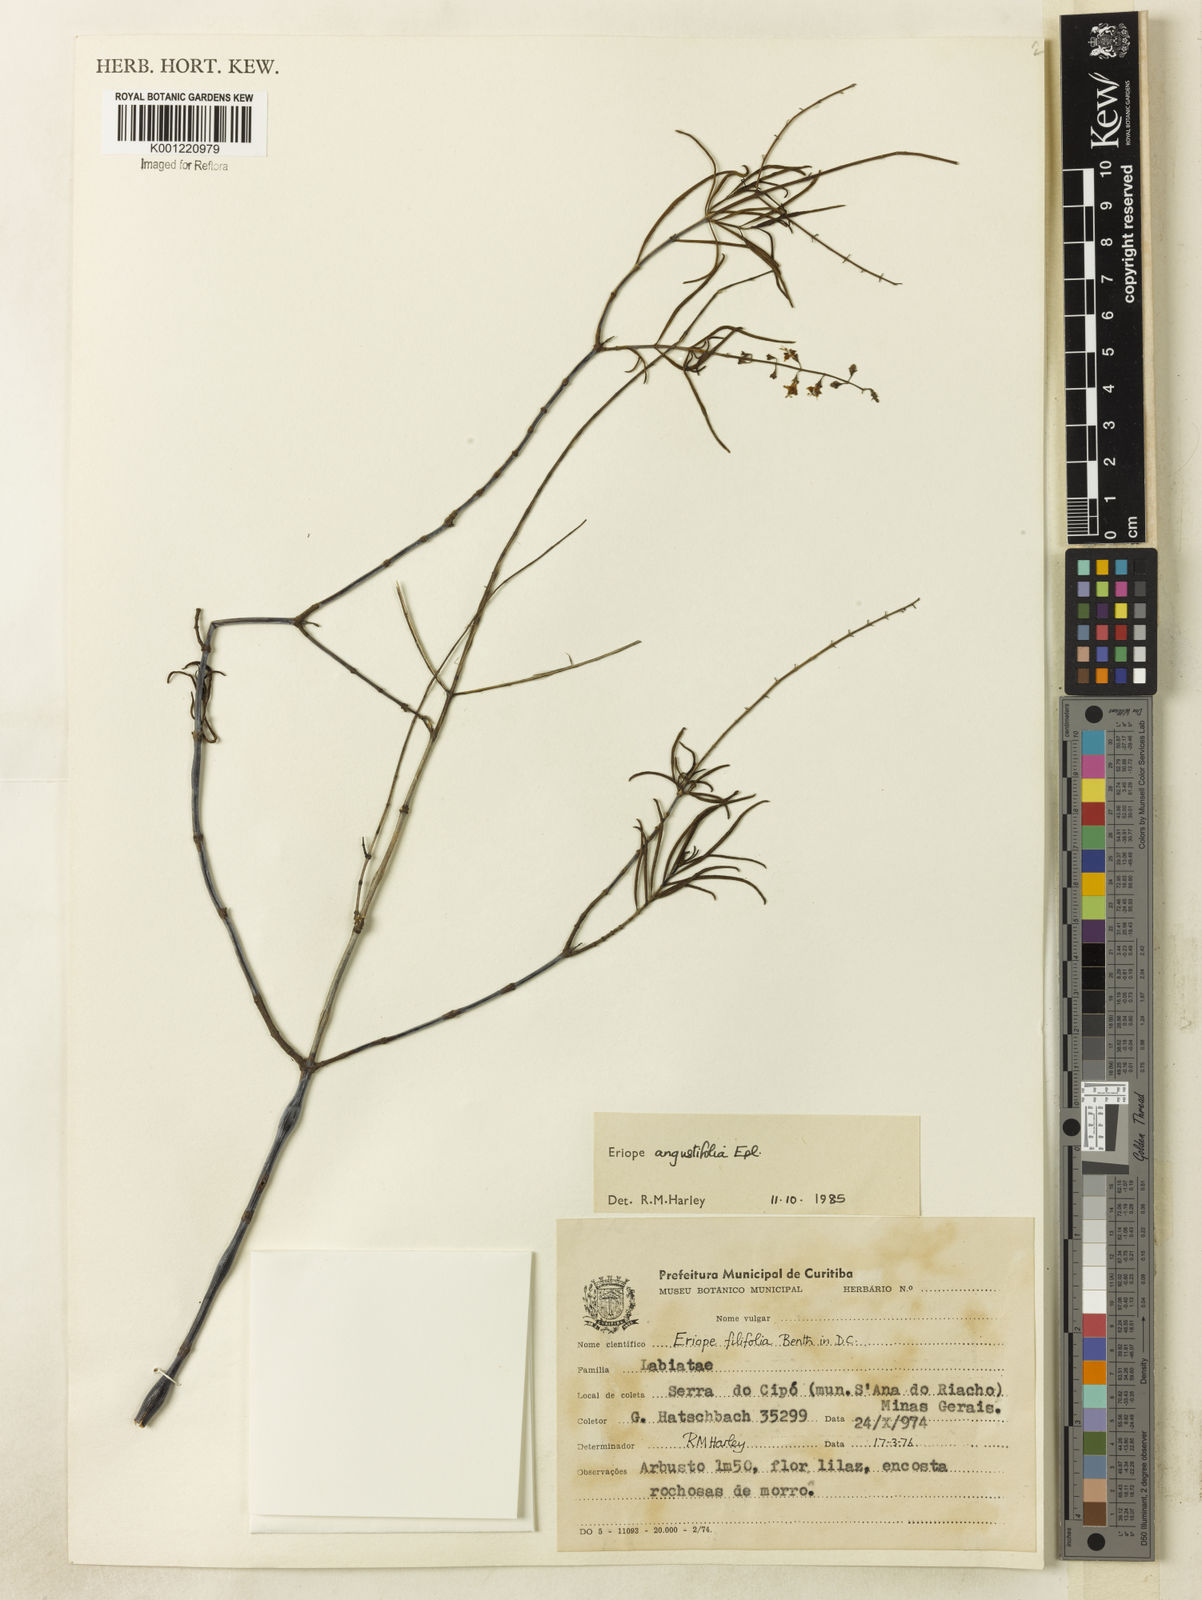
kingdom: Plantae
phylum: Tracheophyta
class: Magnoliopsida
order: Lamiales
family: Lamiaceae
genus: Eriope
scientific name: Eriope angustifolia
